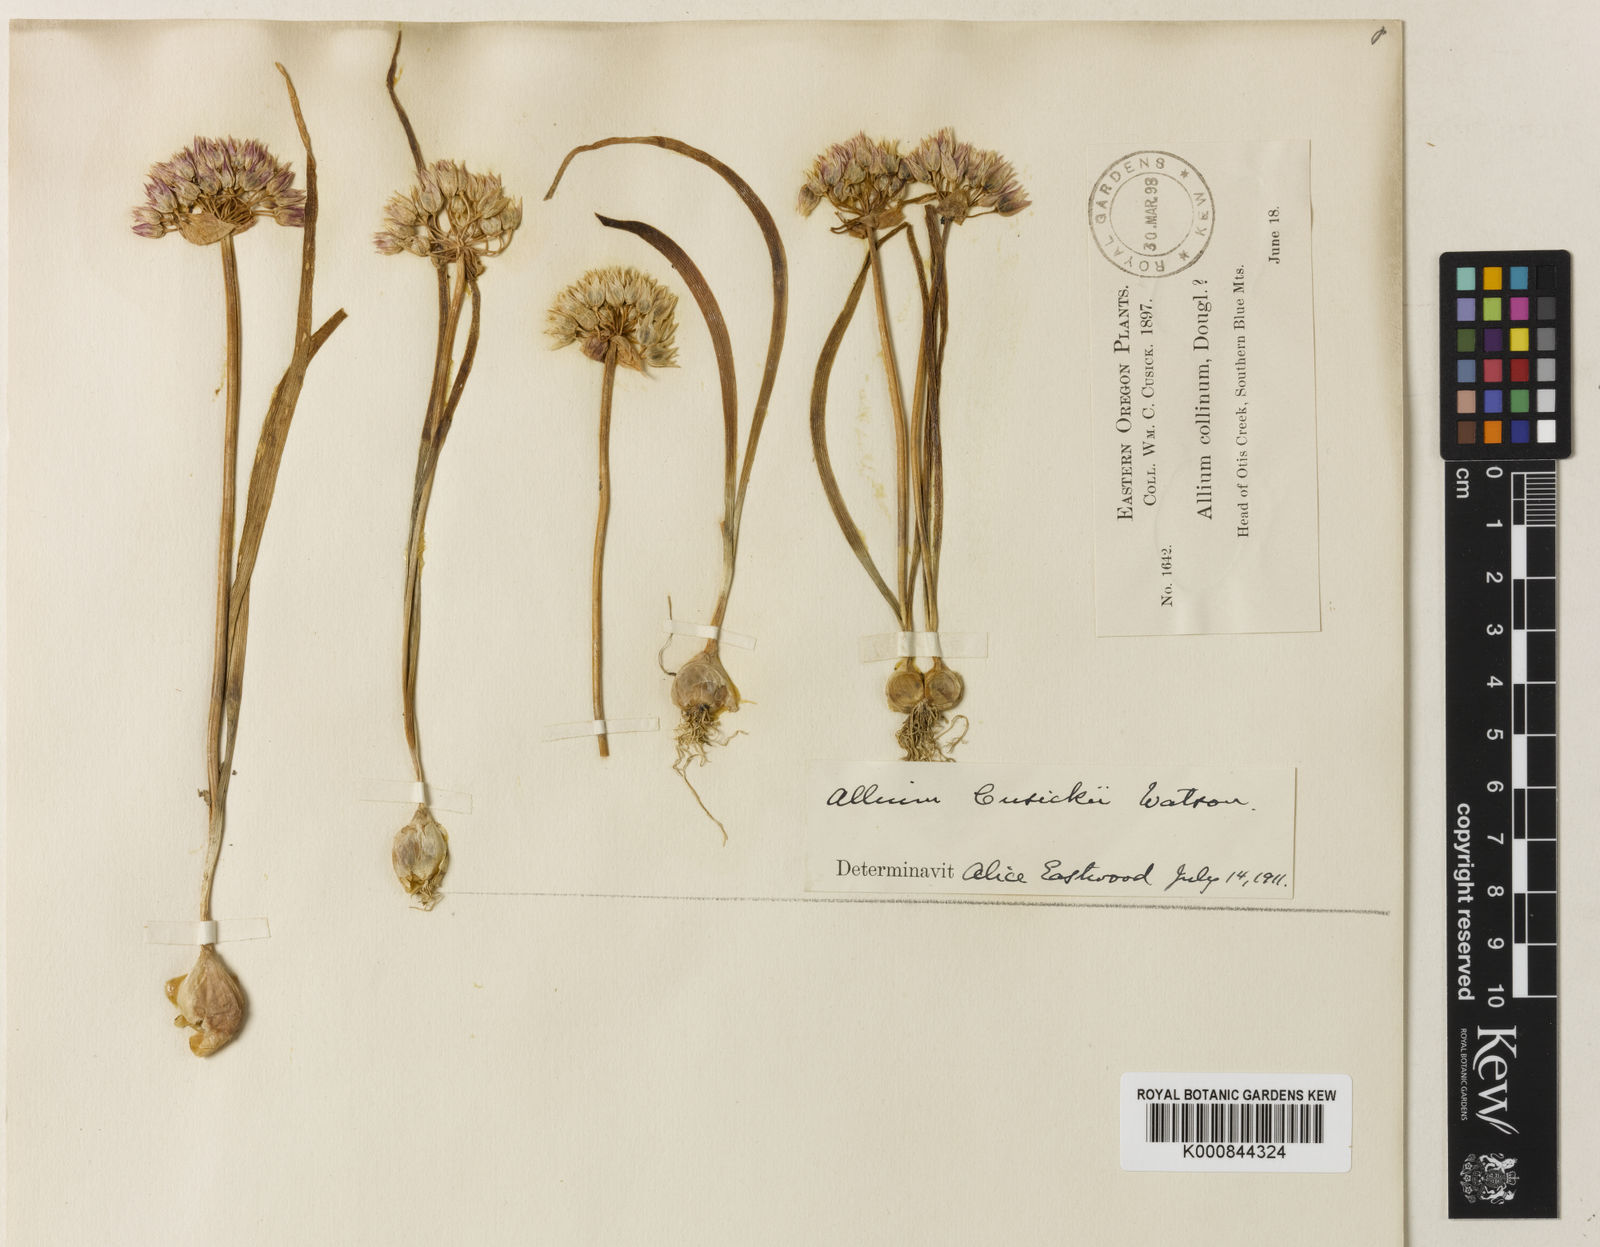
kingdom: Plantae
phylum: Tracheophyta
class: Liliopsida
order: Asparagales
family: Amaryllidaceae
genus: Allium
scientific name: Allium tolmiei
